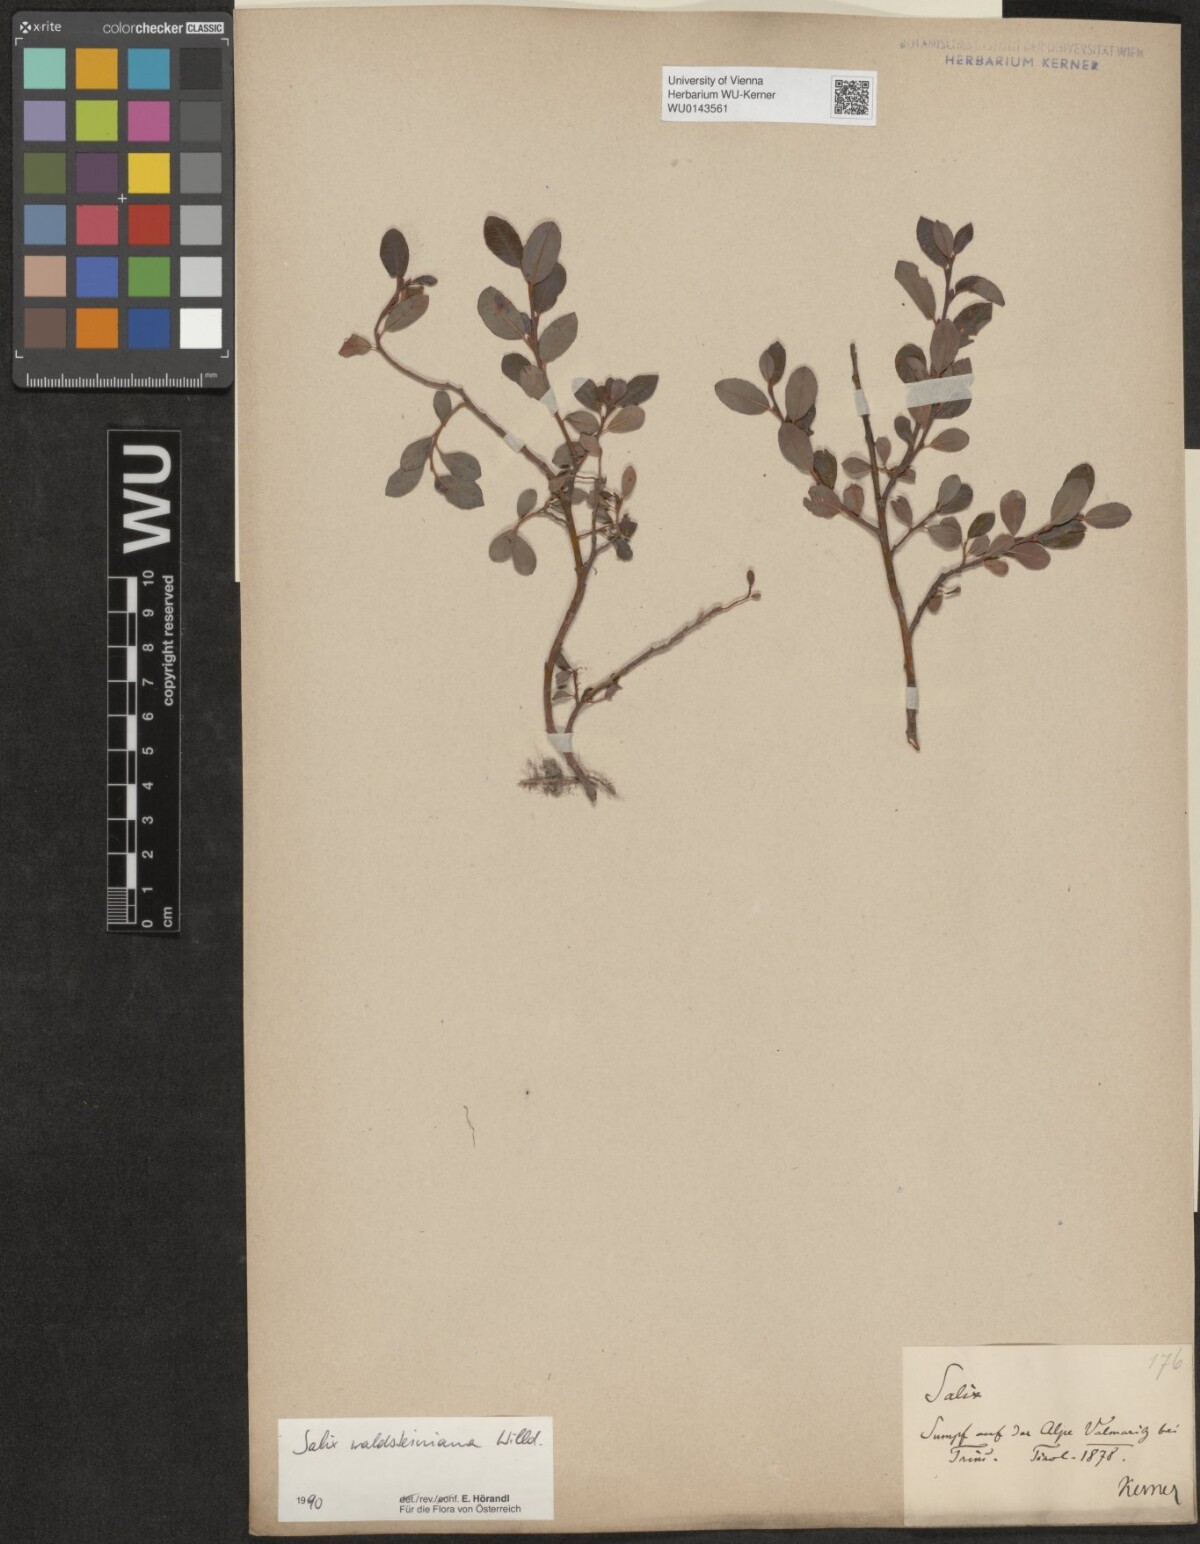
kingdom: Plantae
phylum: Tracheophyta
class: Magnoliopsida
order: Malpighiales
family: Salicaceae
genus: Salix
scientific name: Salix waldsteiniana
